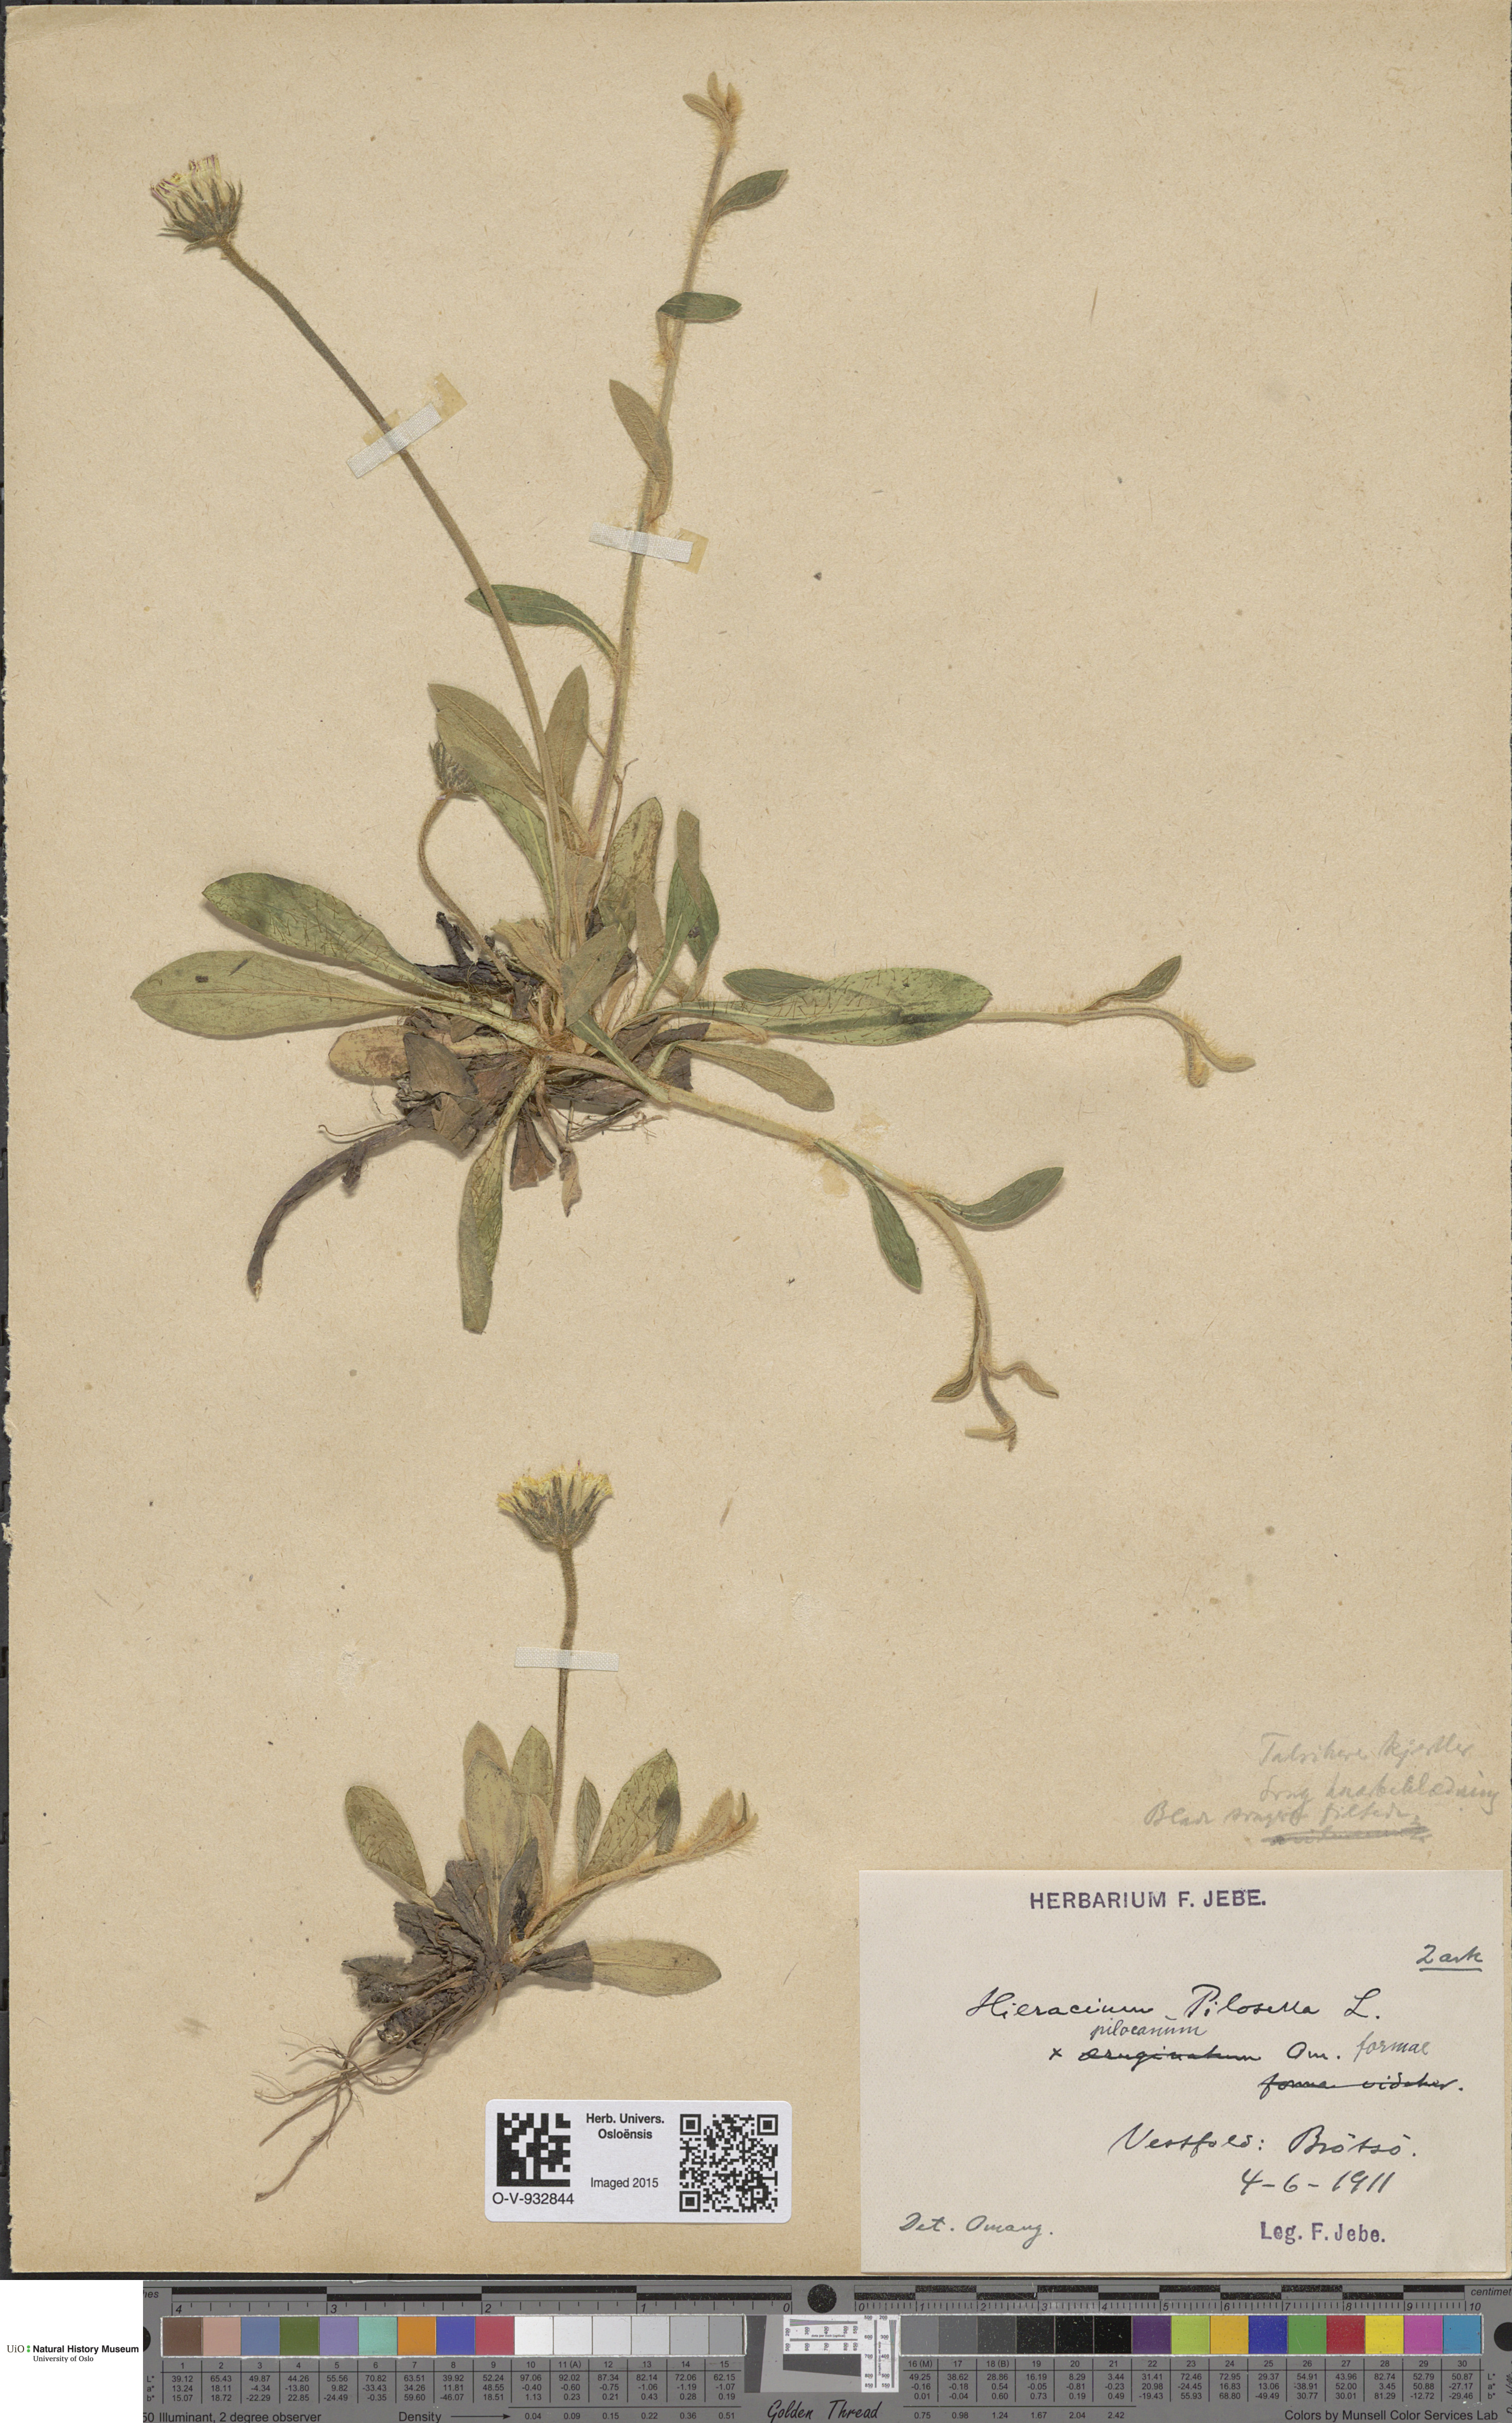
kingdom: Plantae
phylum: Tracheophyta
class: Magnoliopsida
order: Asterales
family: Asteraceae
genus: Pilosella
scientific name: Pilosella officinarum
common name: Mouse-ear hawkweed
